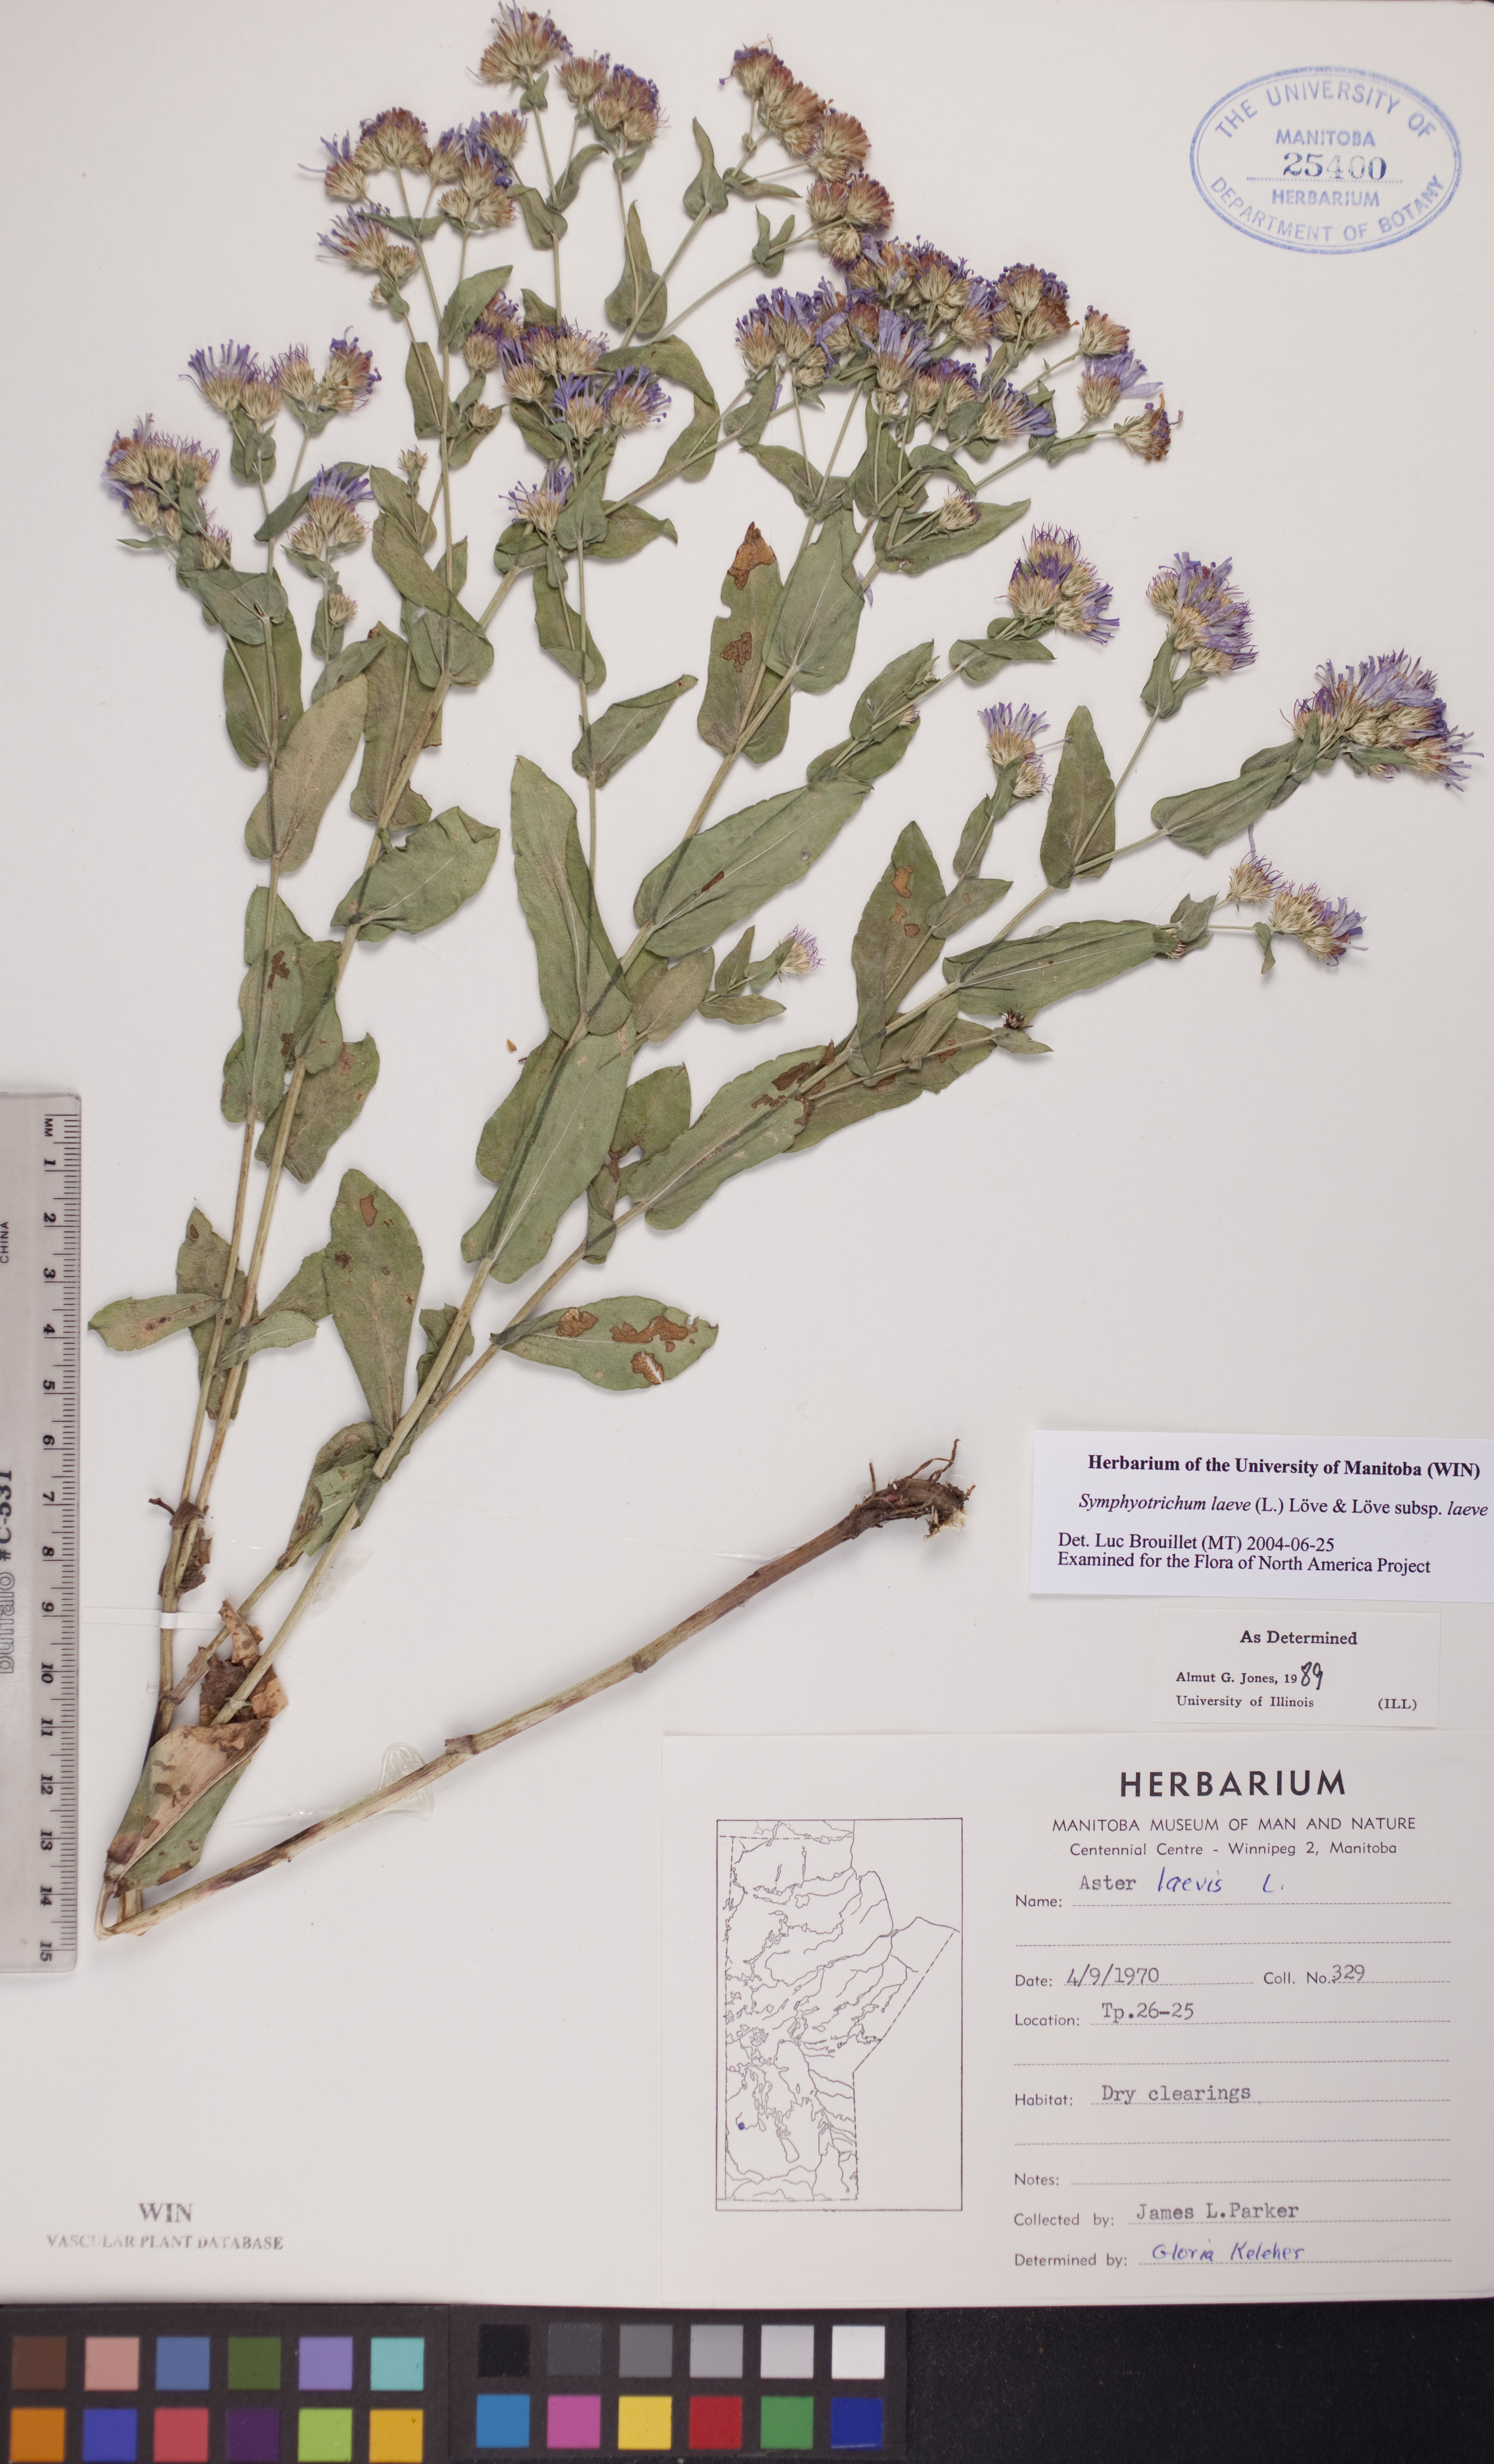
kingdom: Plantae
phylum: Tracheophyta
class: Magnoliopsida
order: Asterales
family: Asteraceae
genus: Symphyotrichum
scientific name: Symphyotrichum laeve
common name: Glaucous aster
